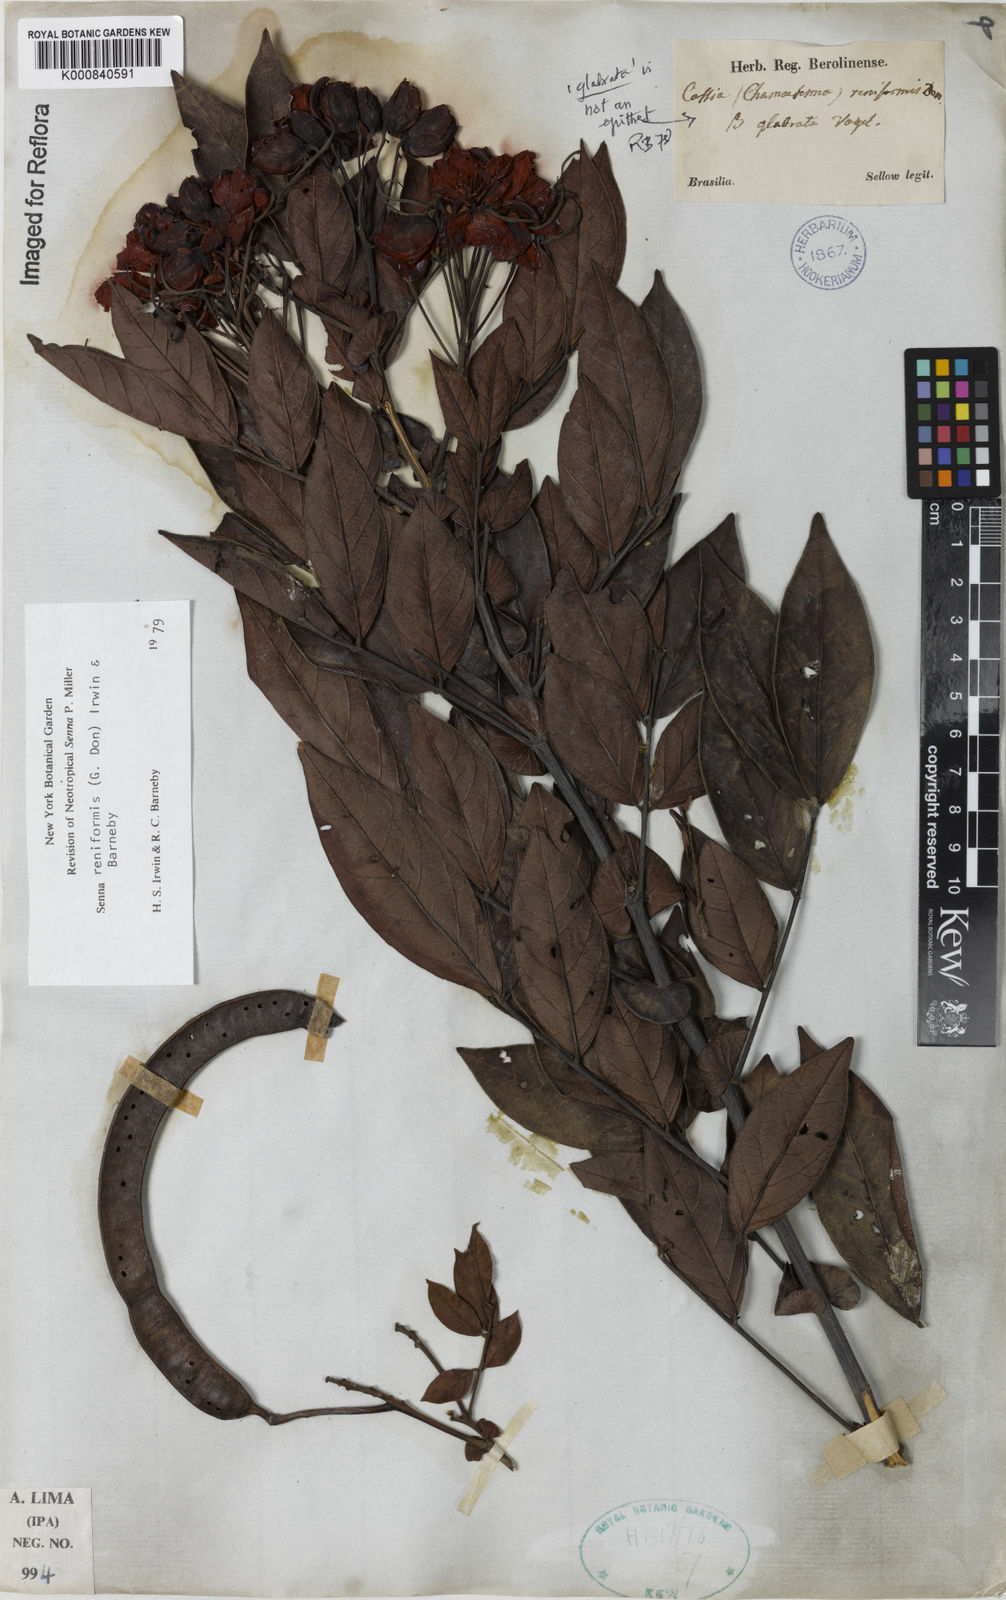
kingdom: Plantae
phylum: Tracheophyta
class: Magnoliopsida
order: Fabales
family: Fabaceae
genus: Senna
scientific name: Senna reniformis
